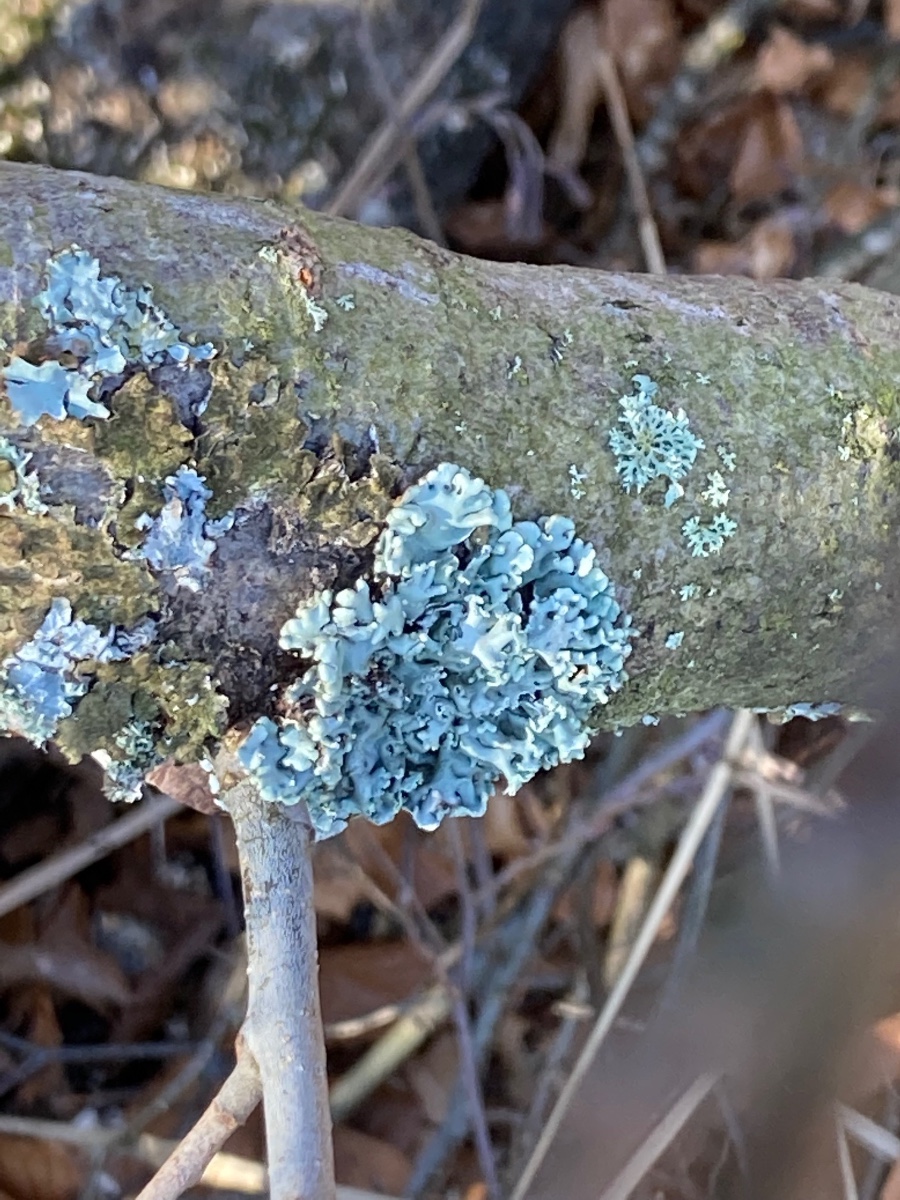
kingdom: Fungi
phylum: Ascomycota
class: Lecanoromycetes
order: Lecanorales
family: Parmeliaceae
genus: Hypogymnia
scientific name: Hypogymnia physodes
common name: almindelig kvistlav
